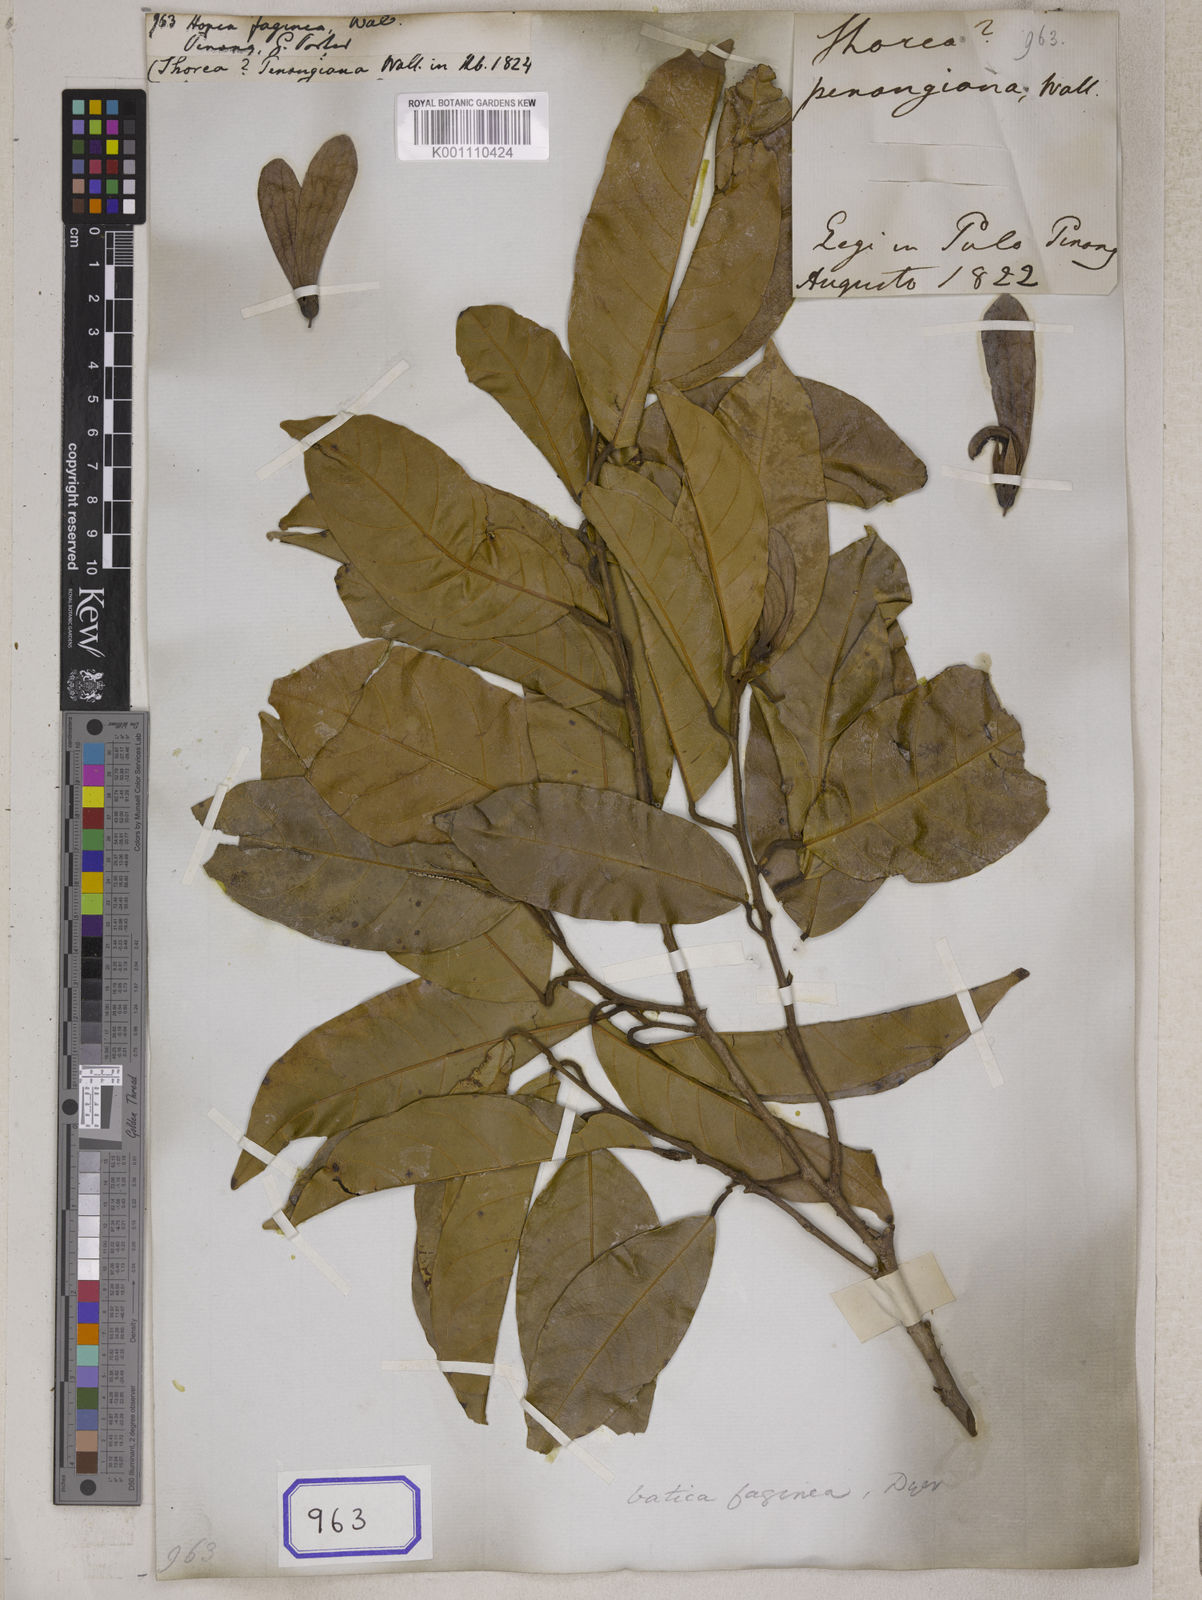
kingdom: Plantae
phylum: Tracheophyta
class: Magnoliopsida
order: Malvales
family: Dipterocarpaceae
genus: Vatica
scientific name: Vatica odorata
